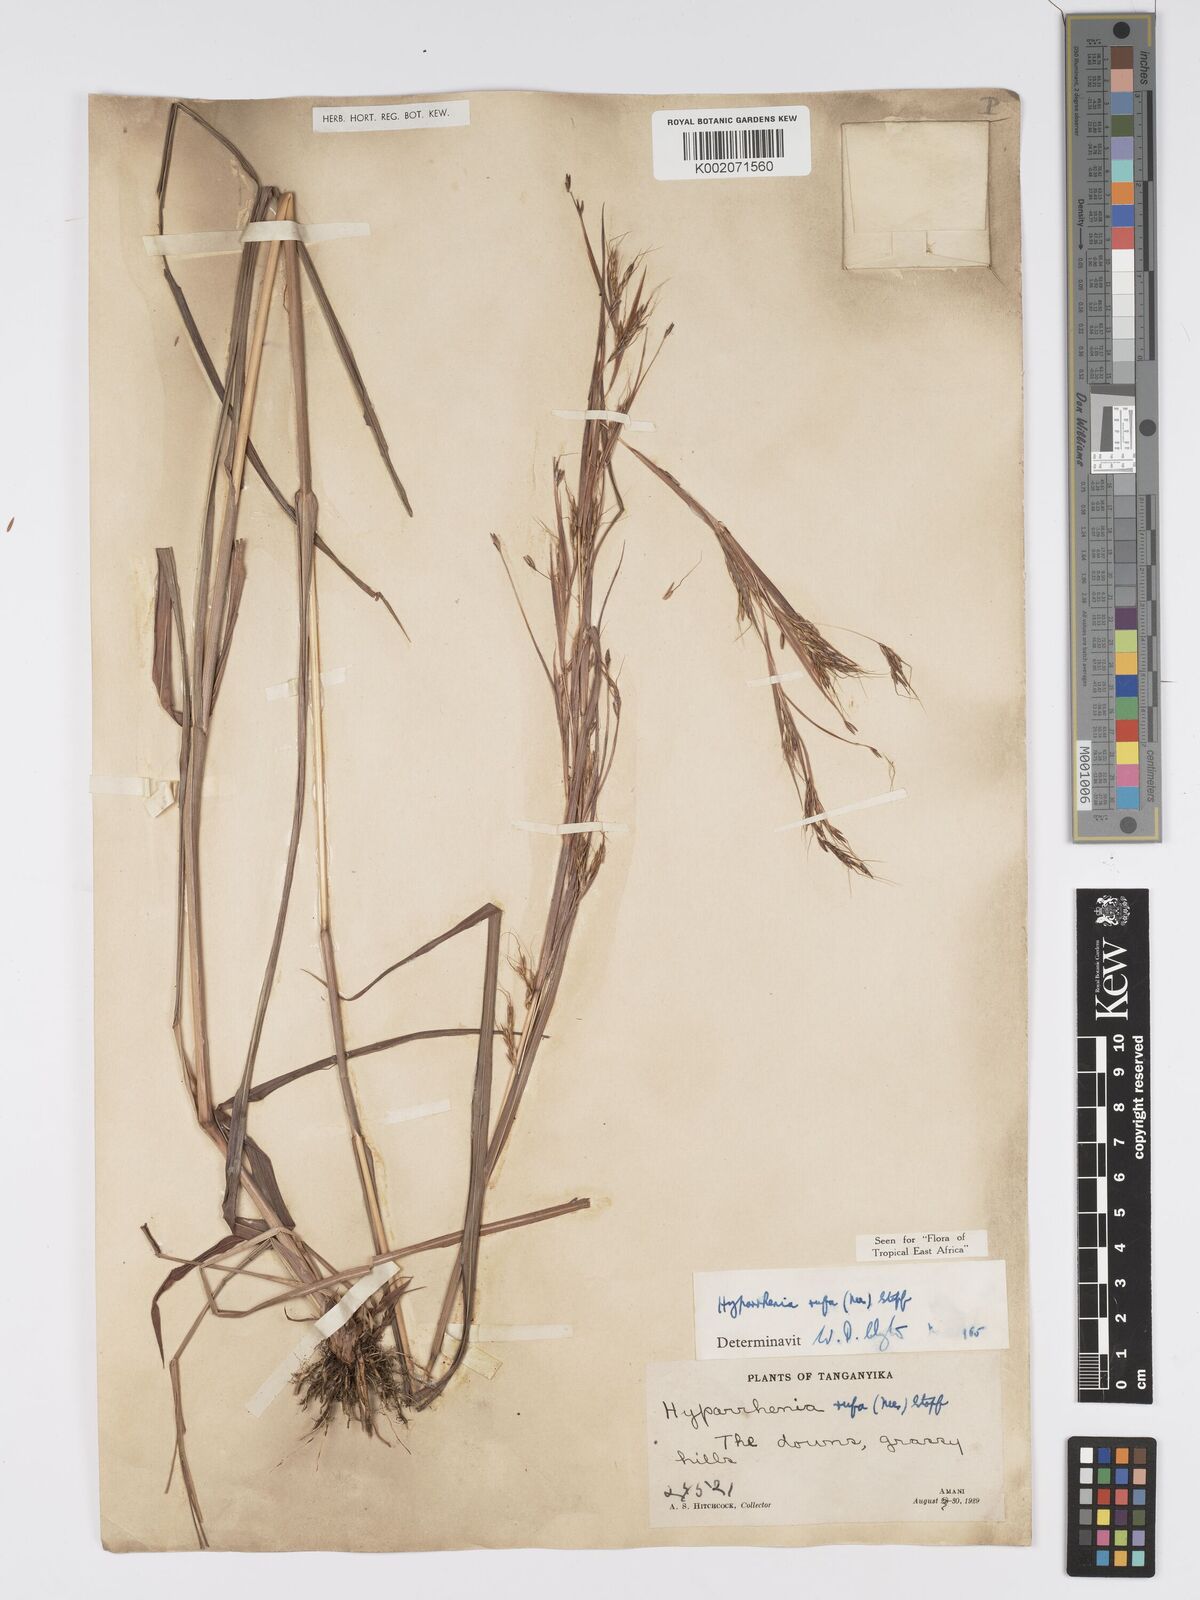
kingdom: Plantae
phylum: Tracheophyta
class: Liliopsida
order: Poales
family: Poaceae
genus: Hyparrhenia
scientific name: Hyparrhenia rufa
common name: Jaraguagrass
